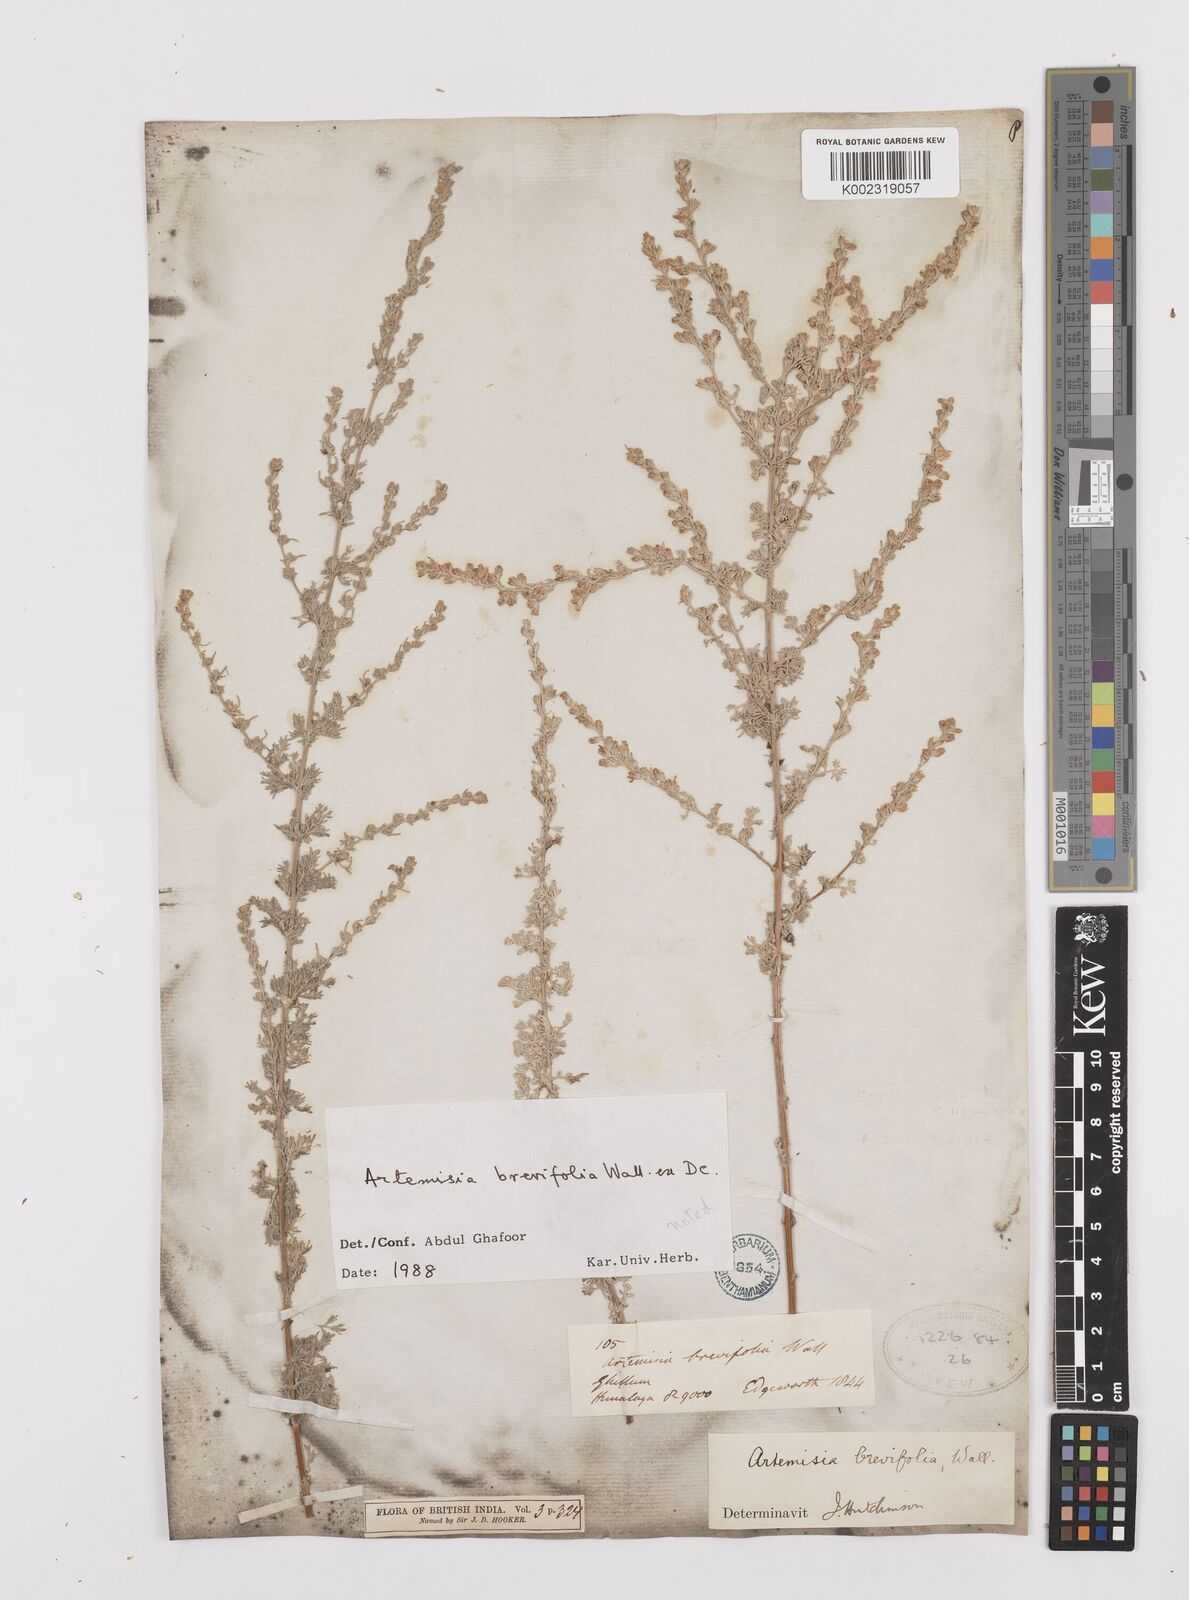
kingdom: Plantae
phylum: Tracheophyta
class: Magnoliopsida
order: Asterales
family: Asteraceae
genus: Artemisia
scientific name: Artemisia brevifolia
